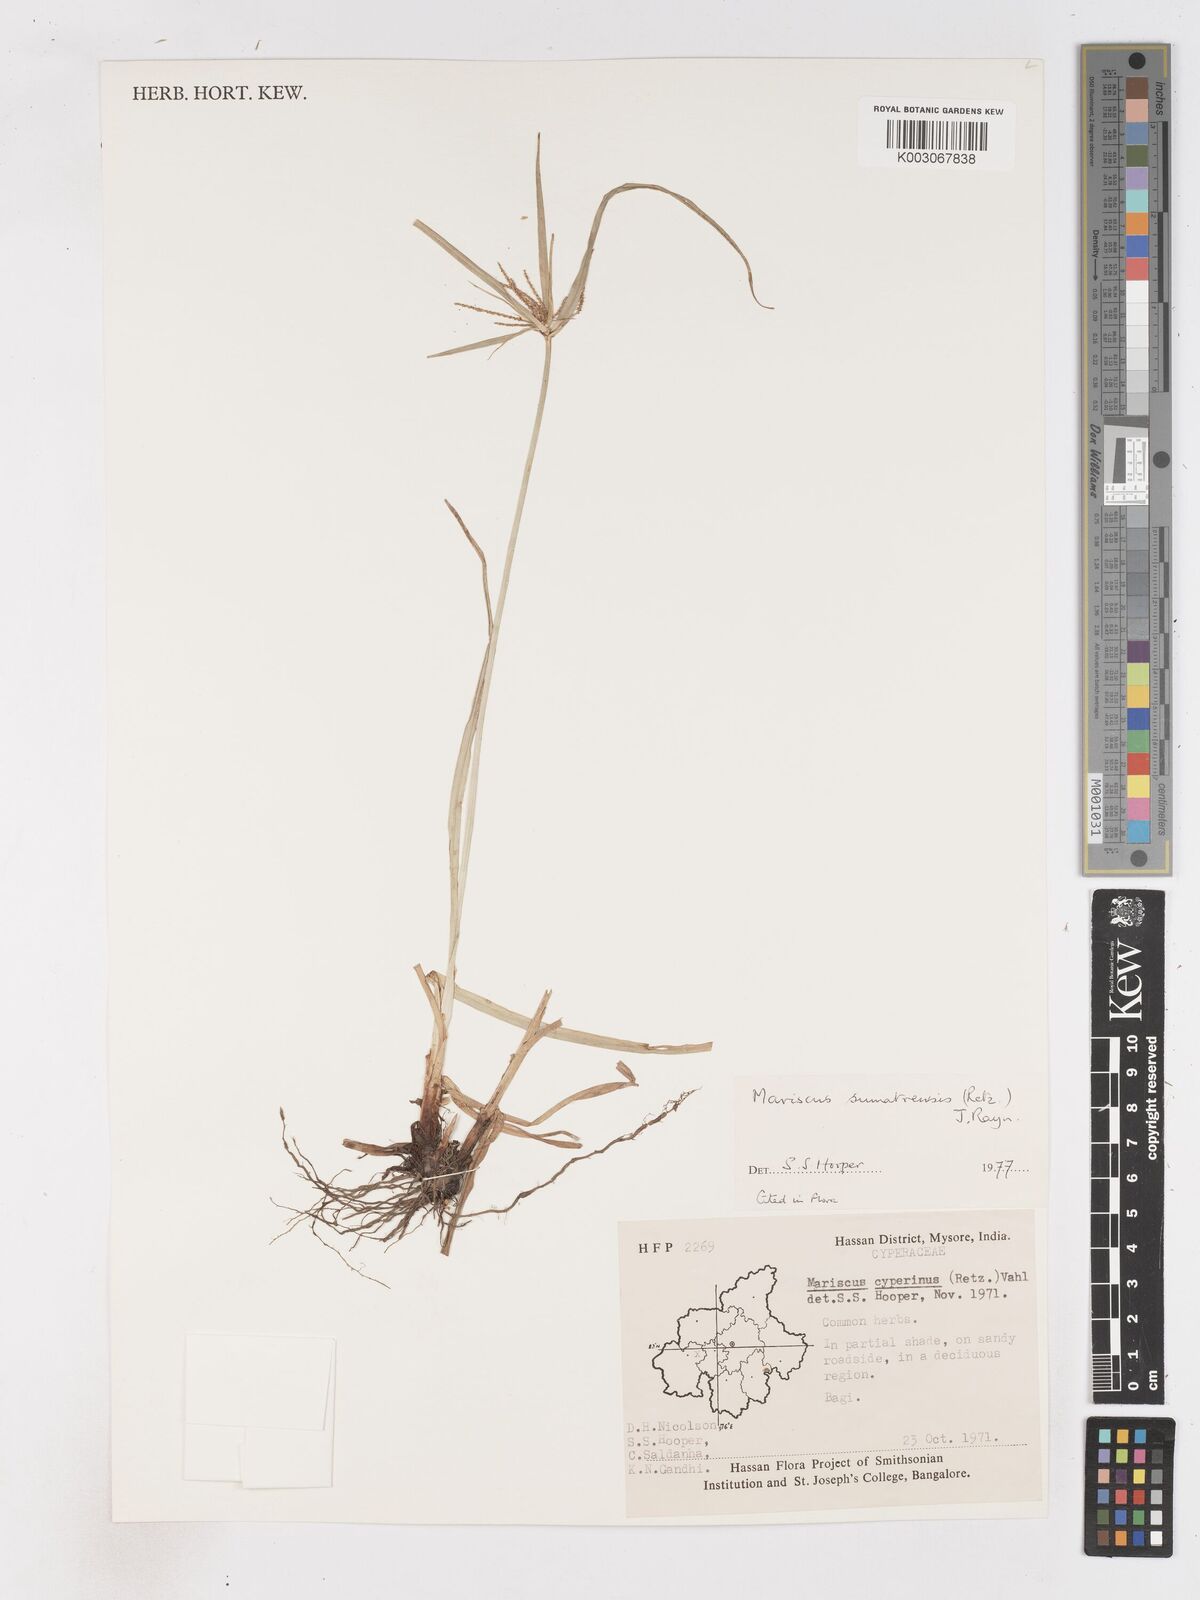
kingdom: Plantae
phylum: Tracheophyta
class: Liliopsida
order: Poales
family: Cyperaceae
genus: Cyperus
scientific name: Cyperus cyperoides
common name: Pacific island flat sedge
